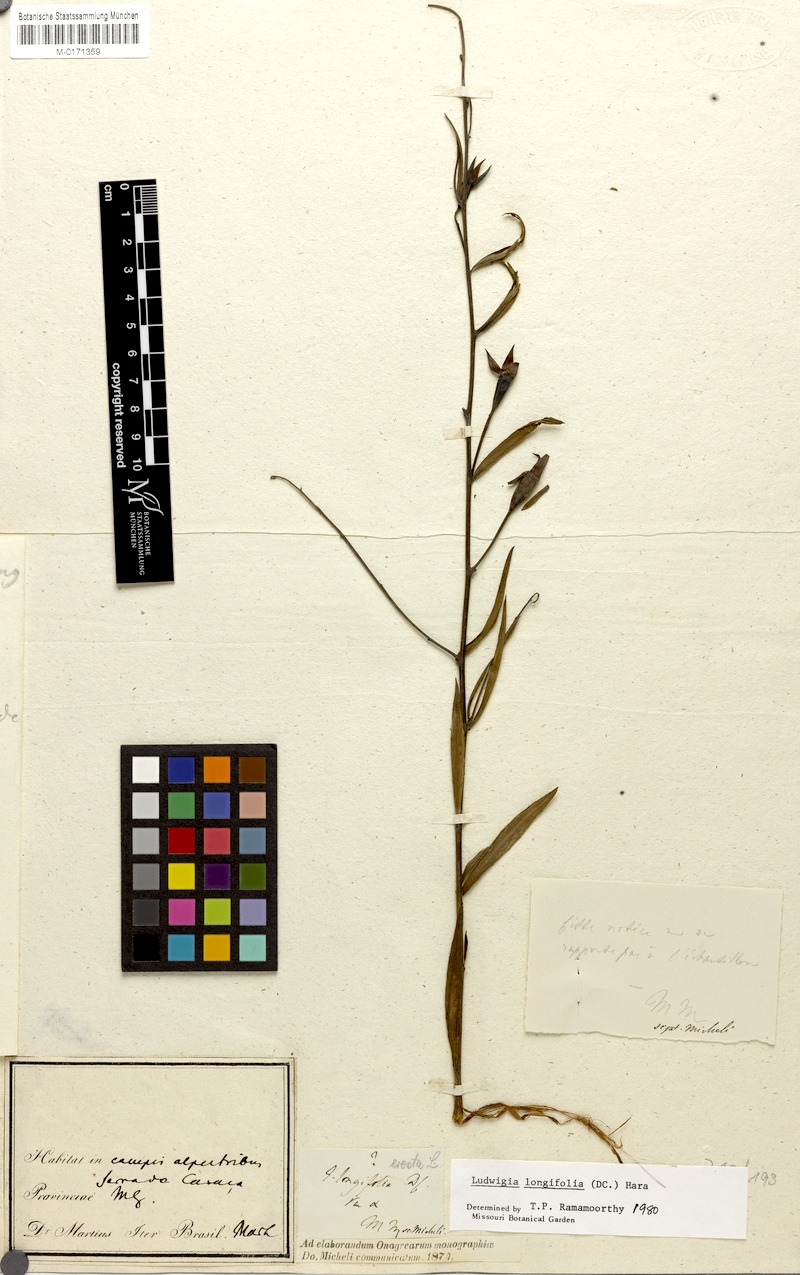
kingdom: Plantae
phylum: Tracheophyta
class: Magnoliopsida
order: Myrtales
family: Onagraceae
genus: Ludwigia
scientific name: Ludwigia longifolia
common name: Longleaf primrose-willow
